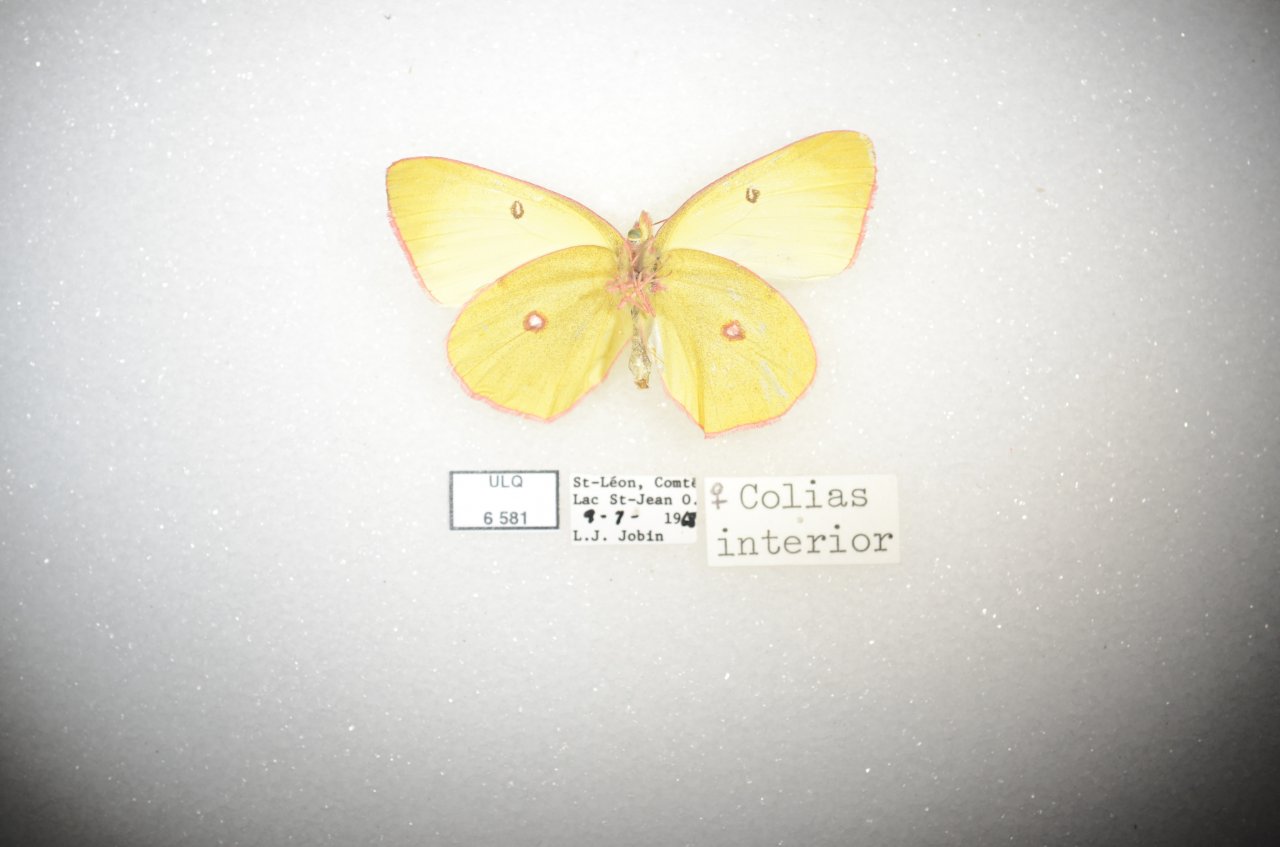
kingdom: Animalia
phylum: Arthropoda
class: Insecta
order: Lepidoptera
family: Pieridae
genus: Colias
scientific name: Colias interior
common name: Pink-edged Sulphur
